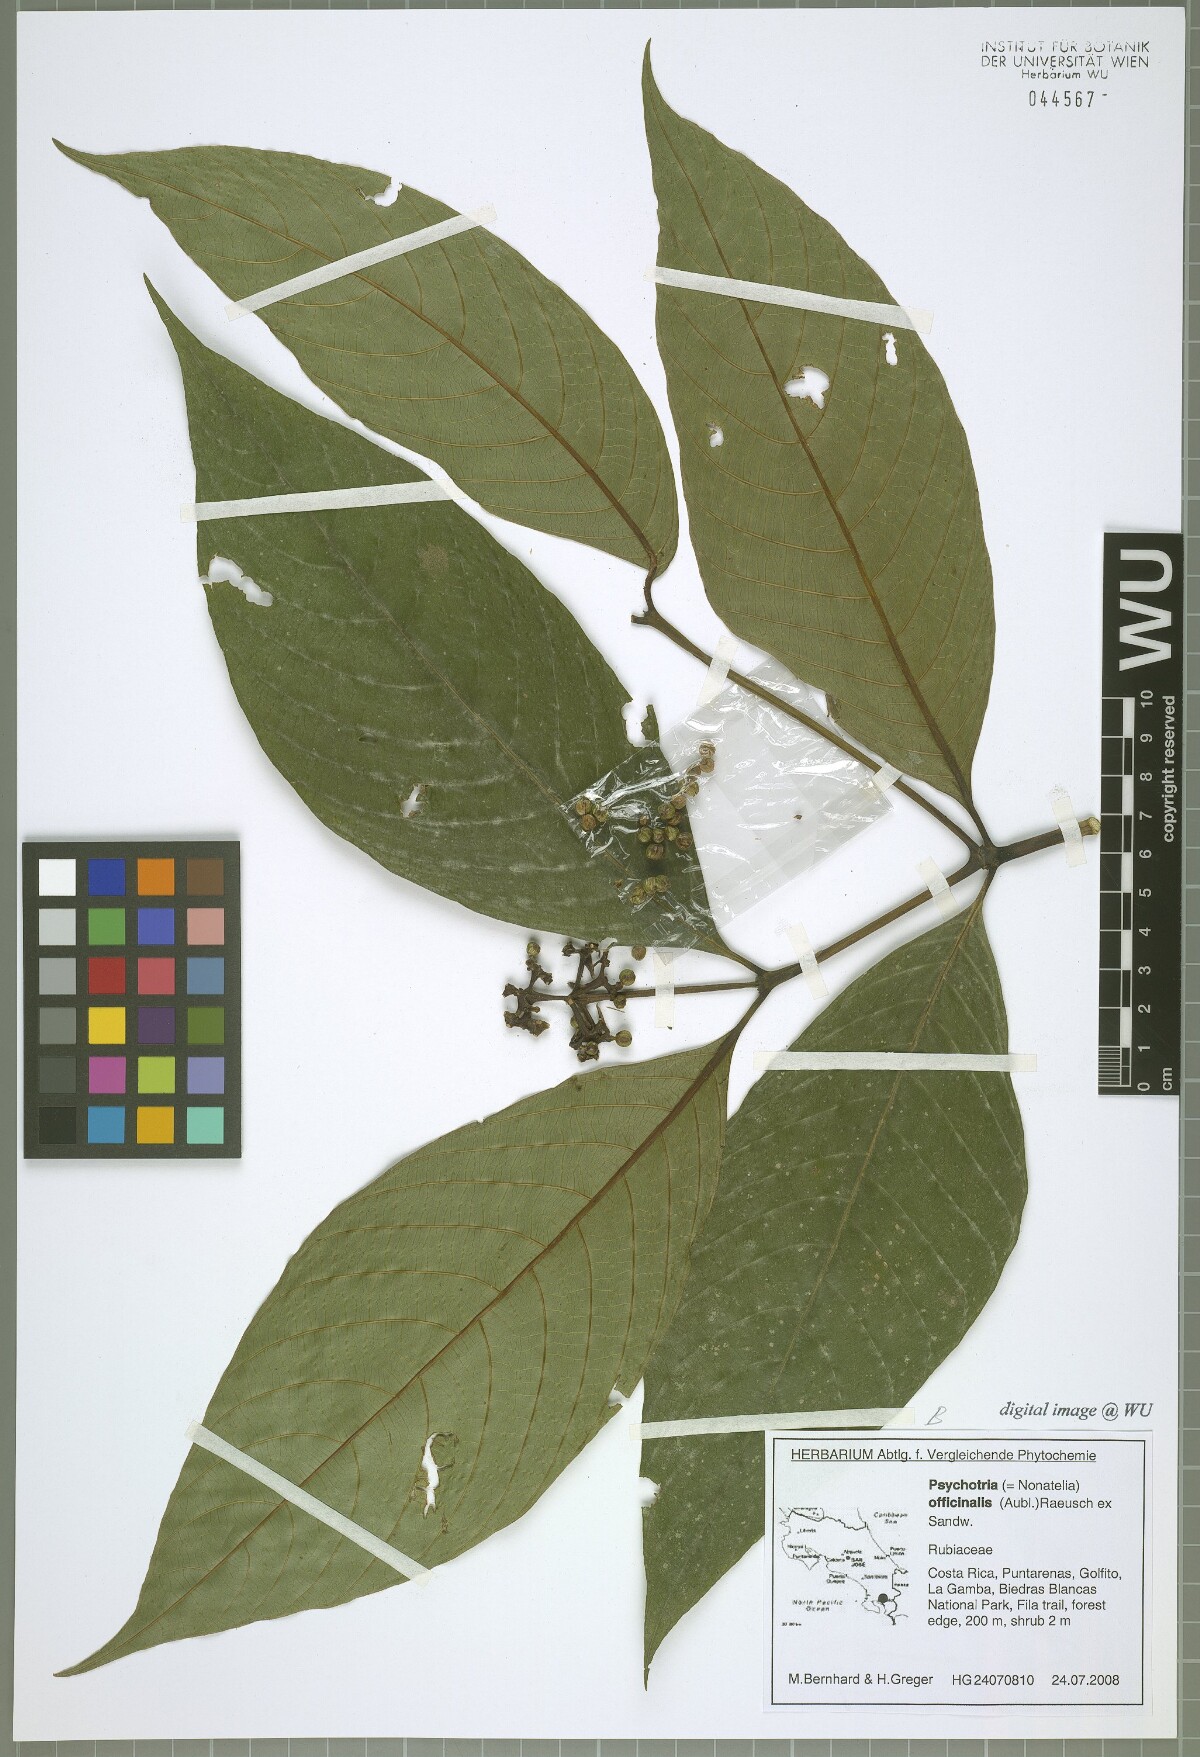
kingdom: Plantae
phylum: Tracheophyta
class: Magnoliopsida
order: Gentianales
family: Rubiaceae
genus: Palicourea
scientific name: Palicourea winkleri
